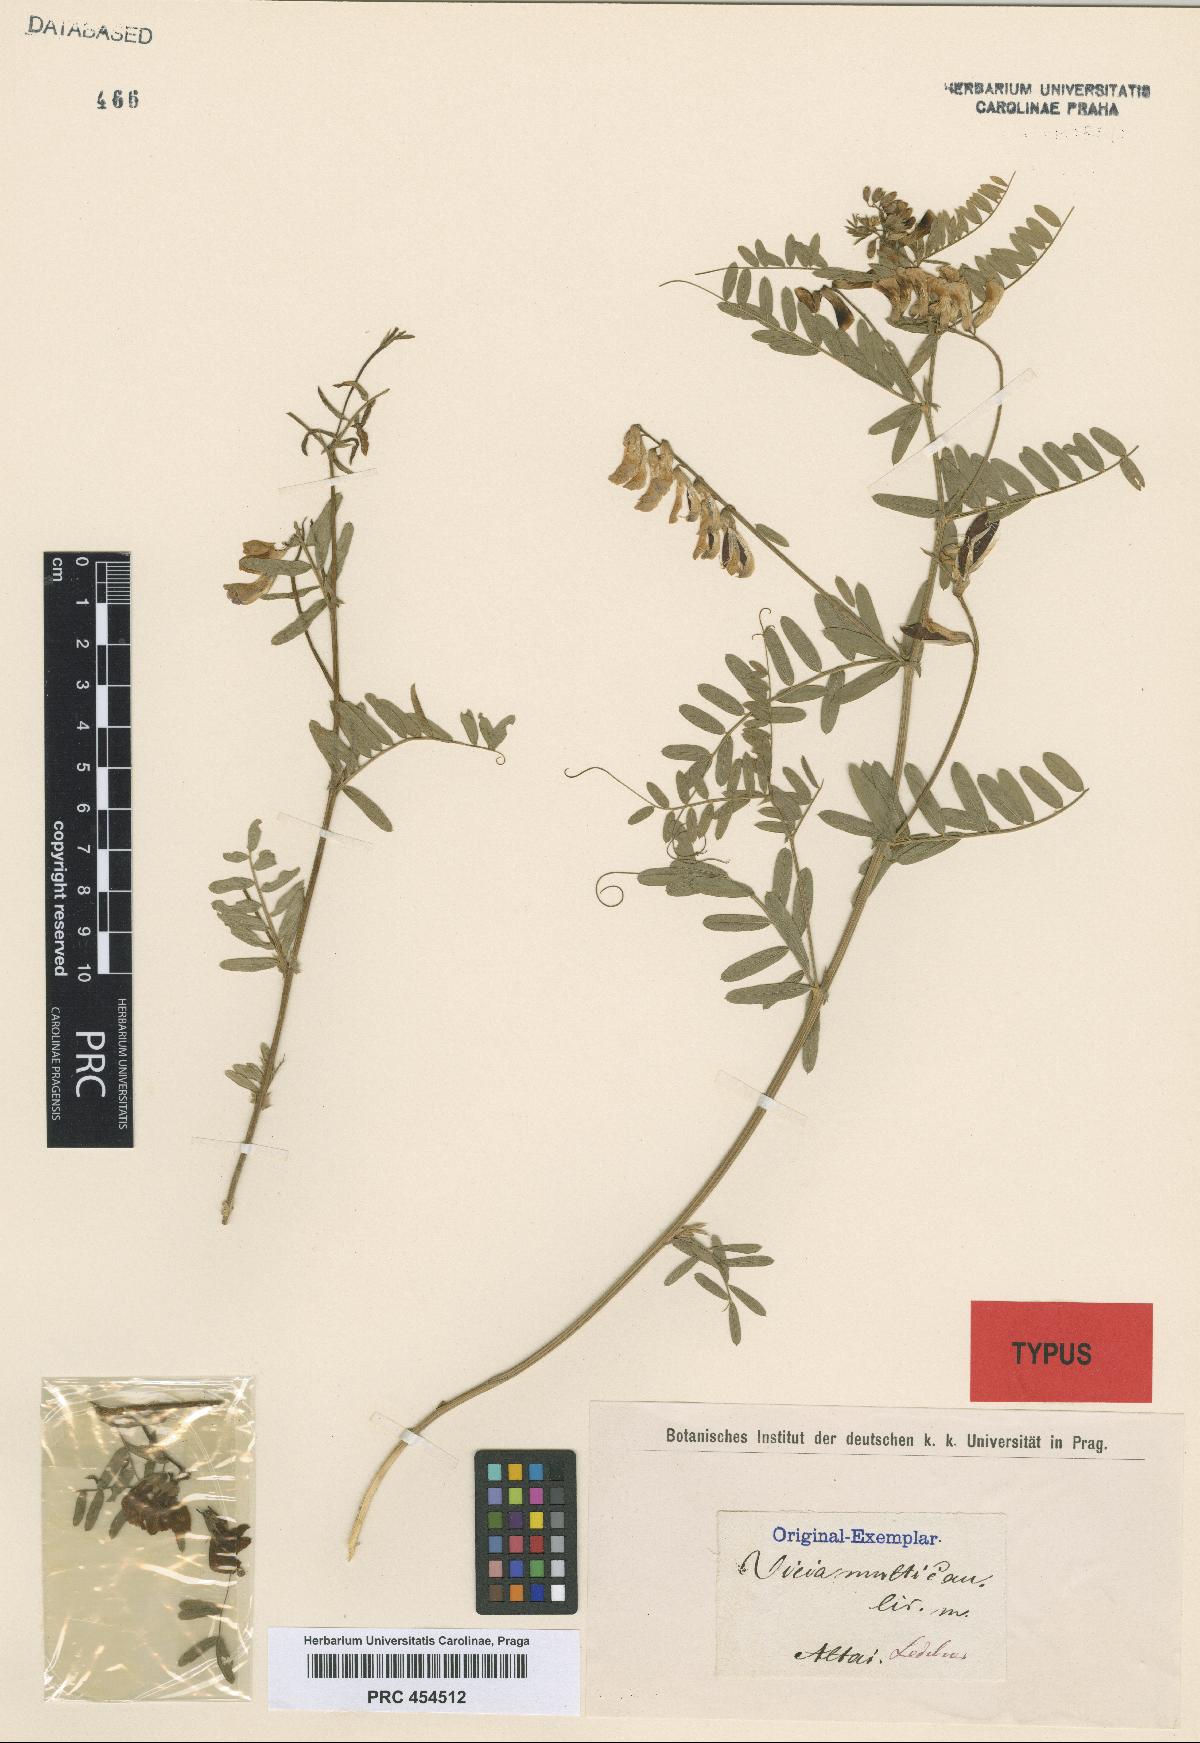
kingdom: Plantae
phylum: Tracheophyta
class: Magnoliopsida
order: Fabales
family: Fabaceae
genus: Vicia
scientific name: Vicia multicaulis
